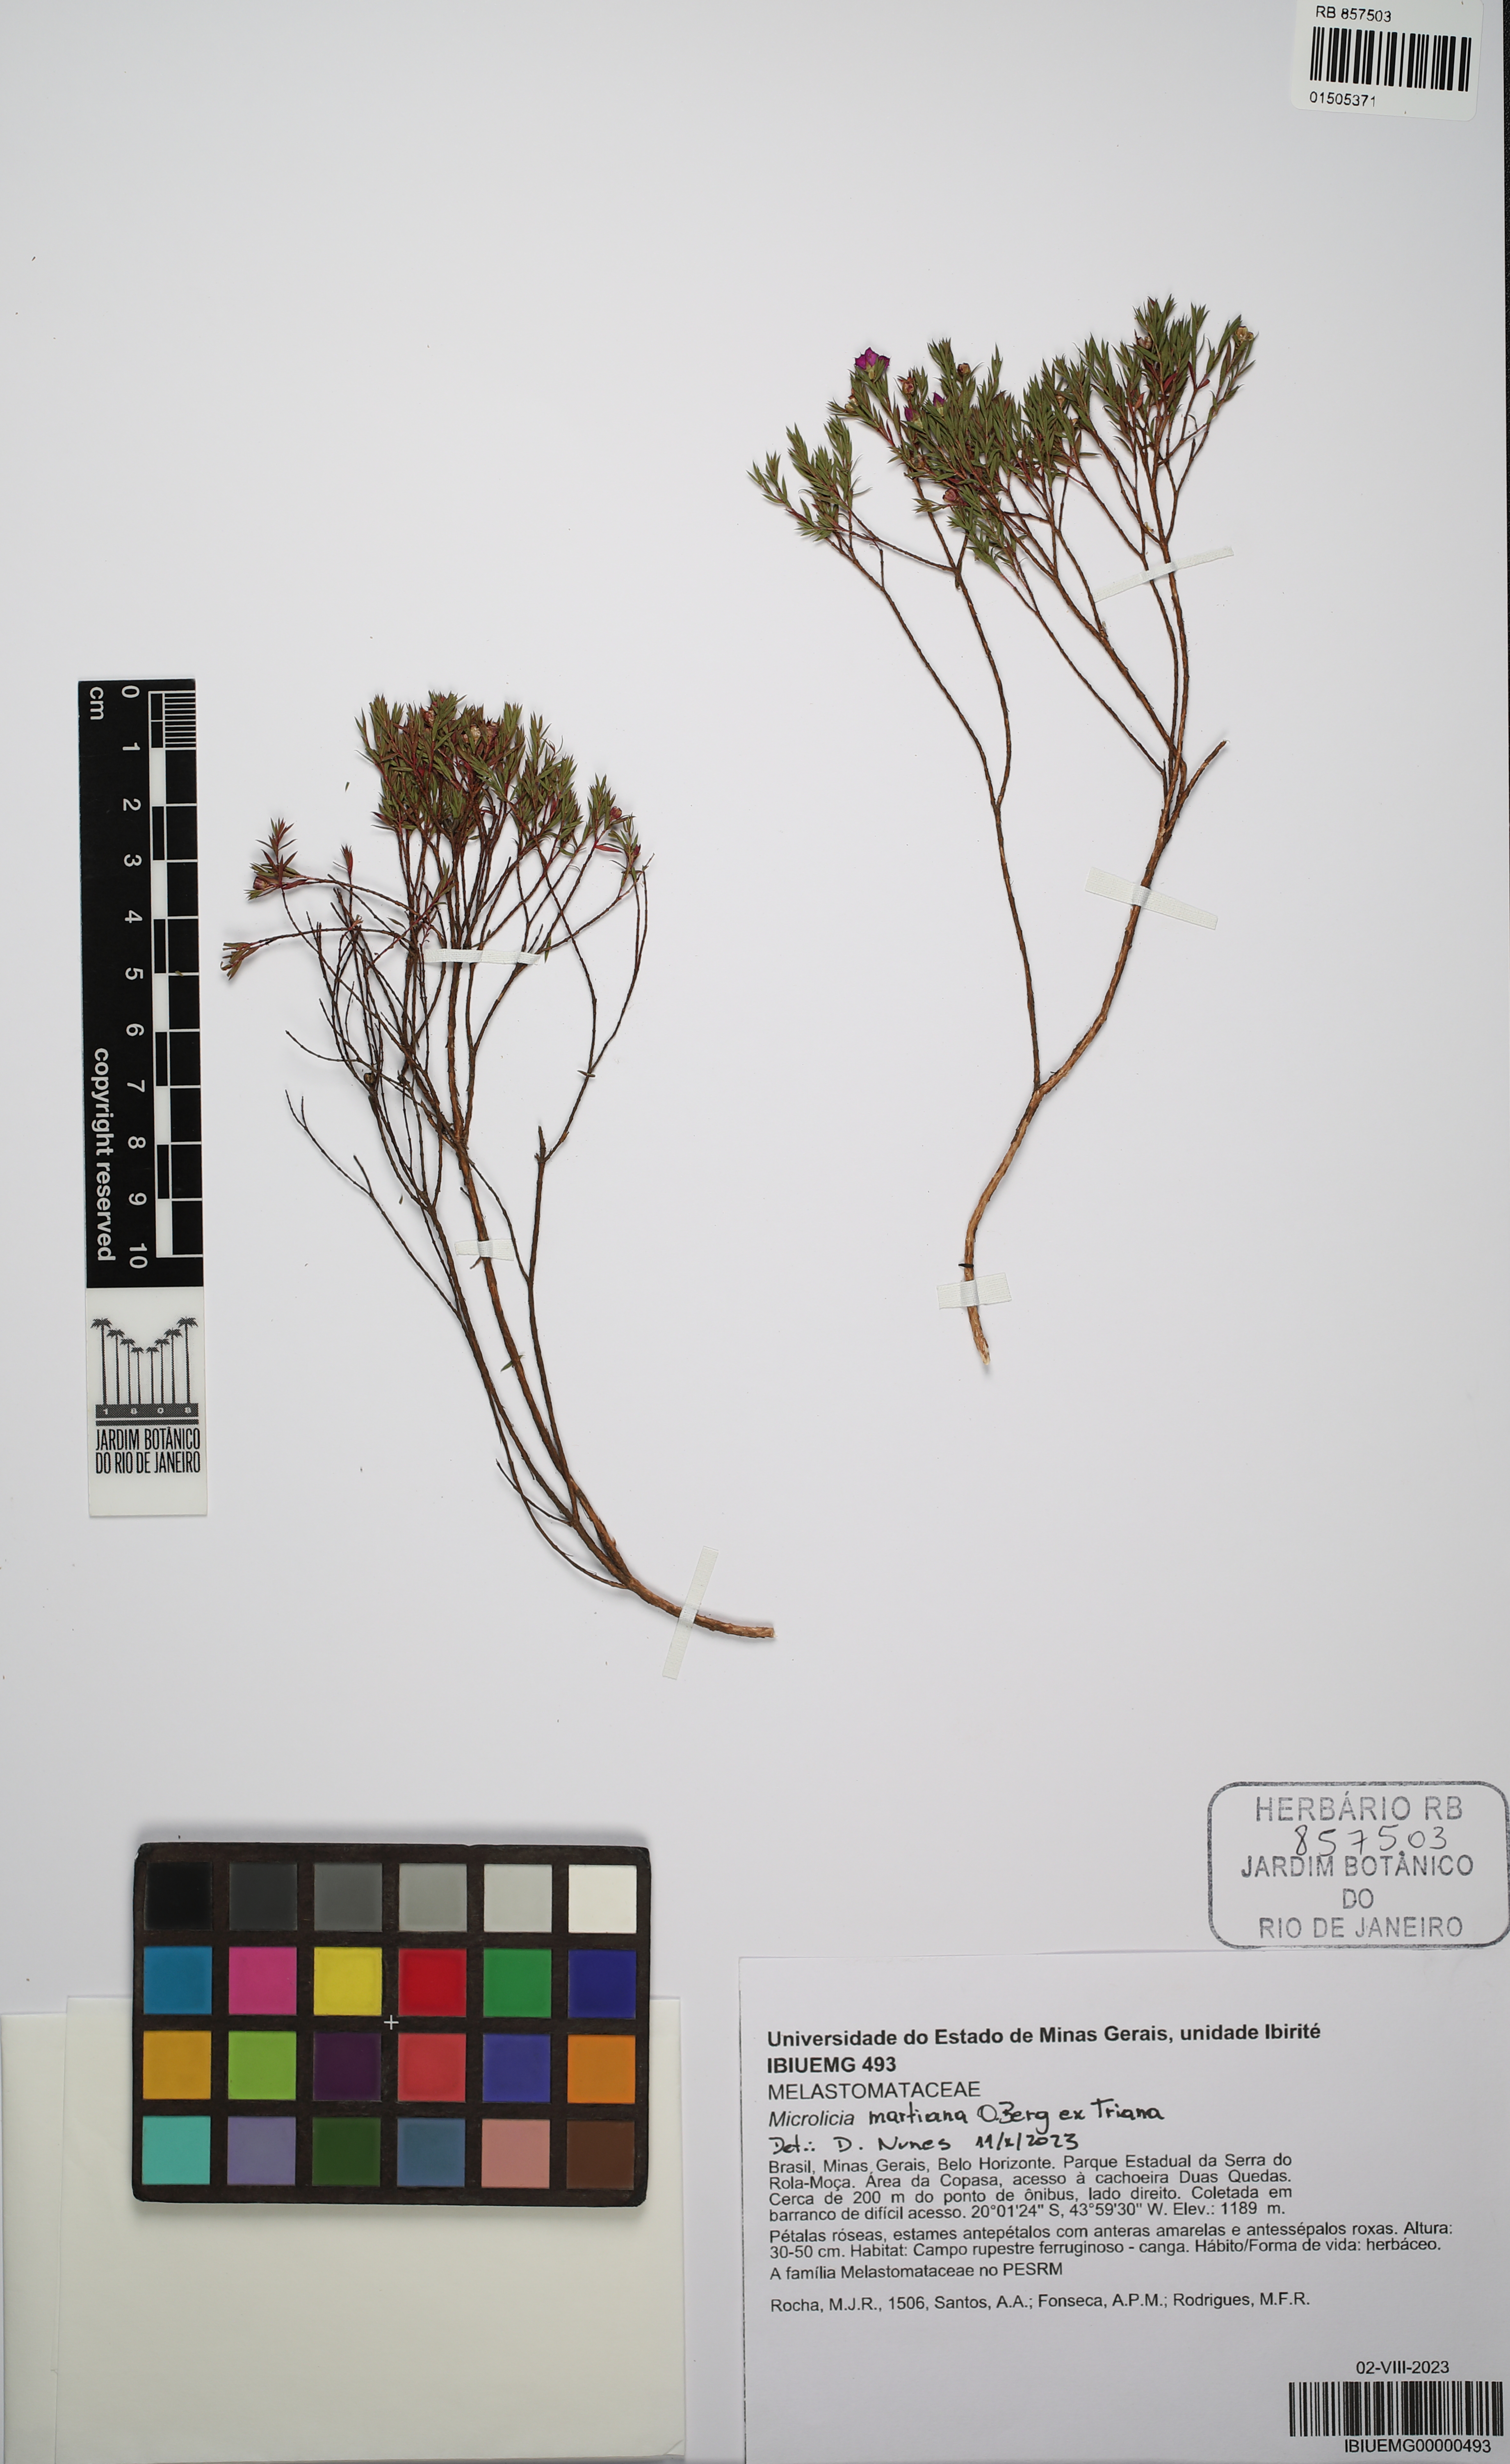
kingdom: Plantae
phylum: Tracheophyta
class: Magnoliopsida
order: Myrtales
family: Melastomataceae
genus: Microlicia
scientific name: Microlicia martiana
